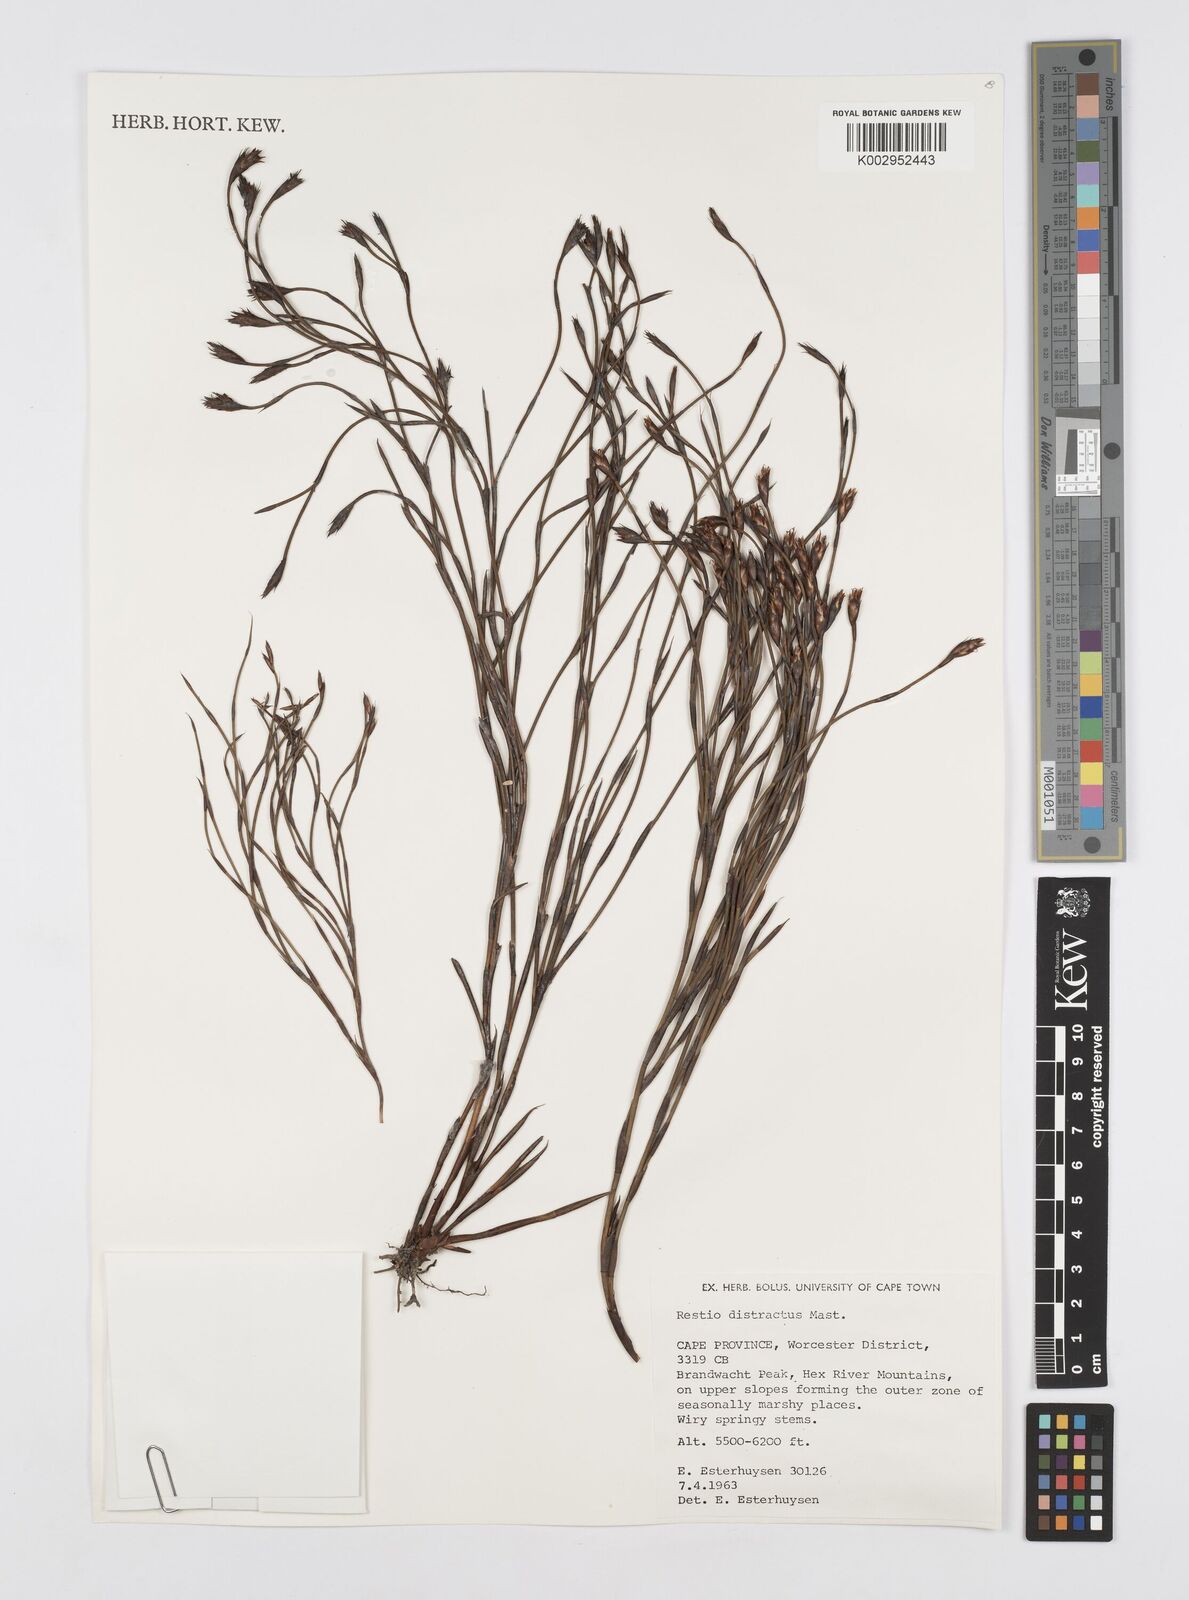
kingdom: Plantae
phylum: Tracheophyta
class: Liliopsida
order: Poales
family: Restionaceae
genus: Restio
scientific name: Restio distractus
